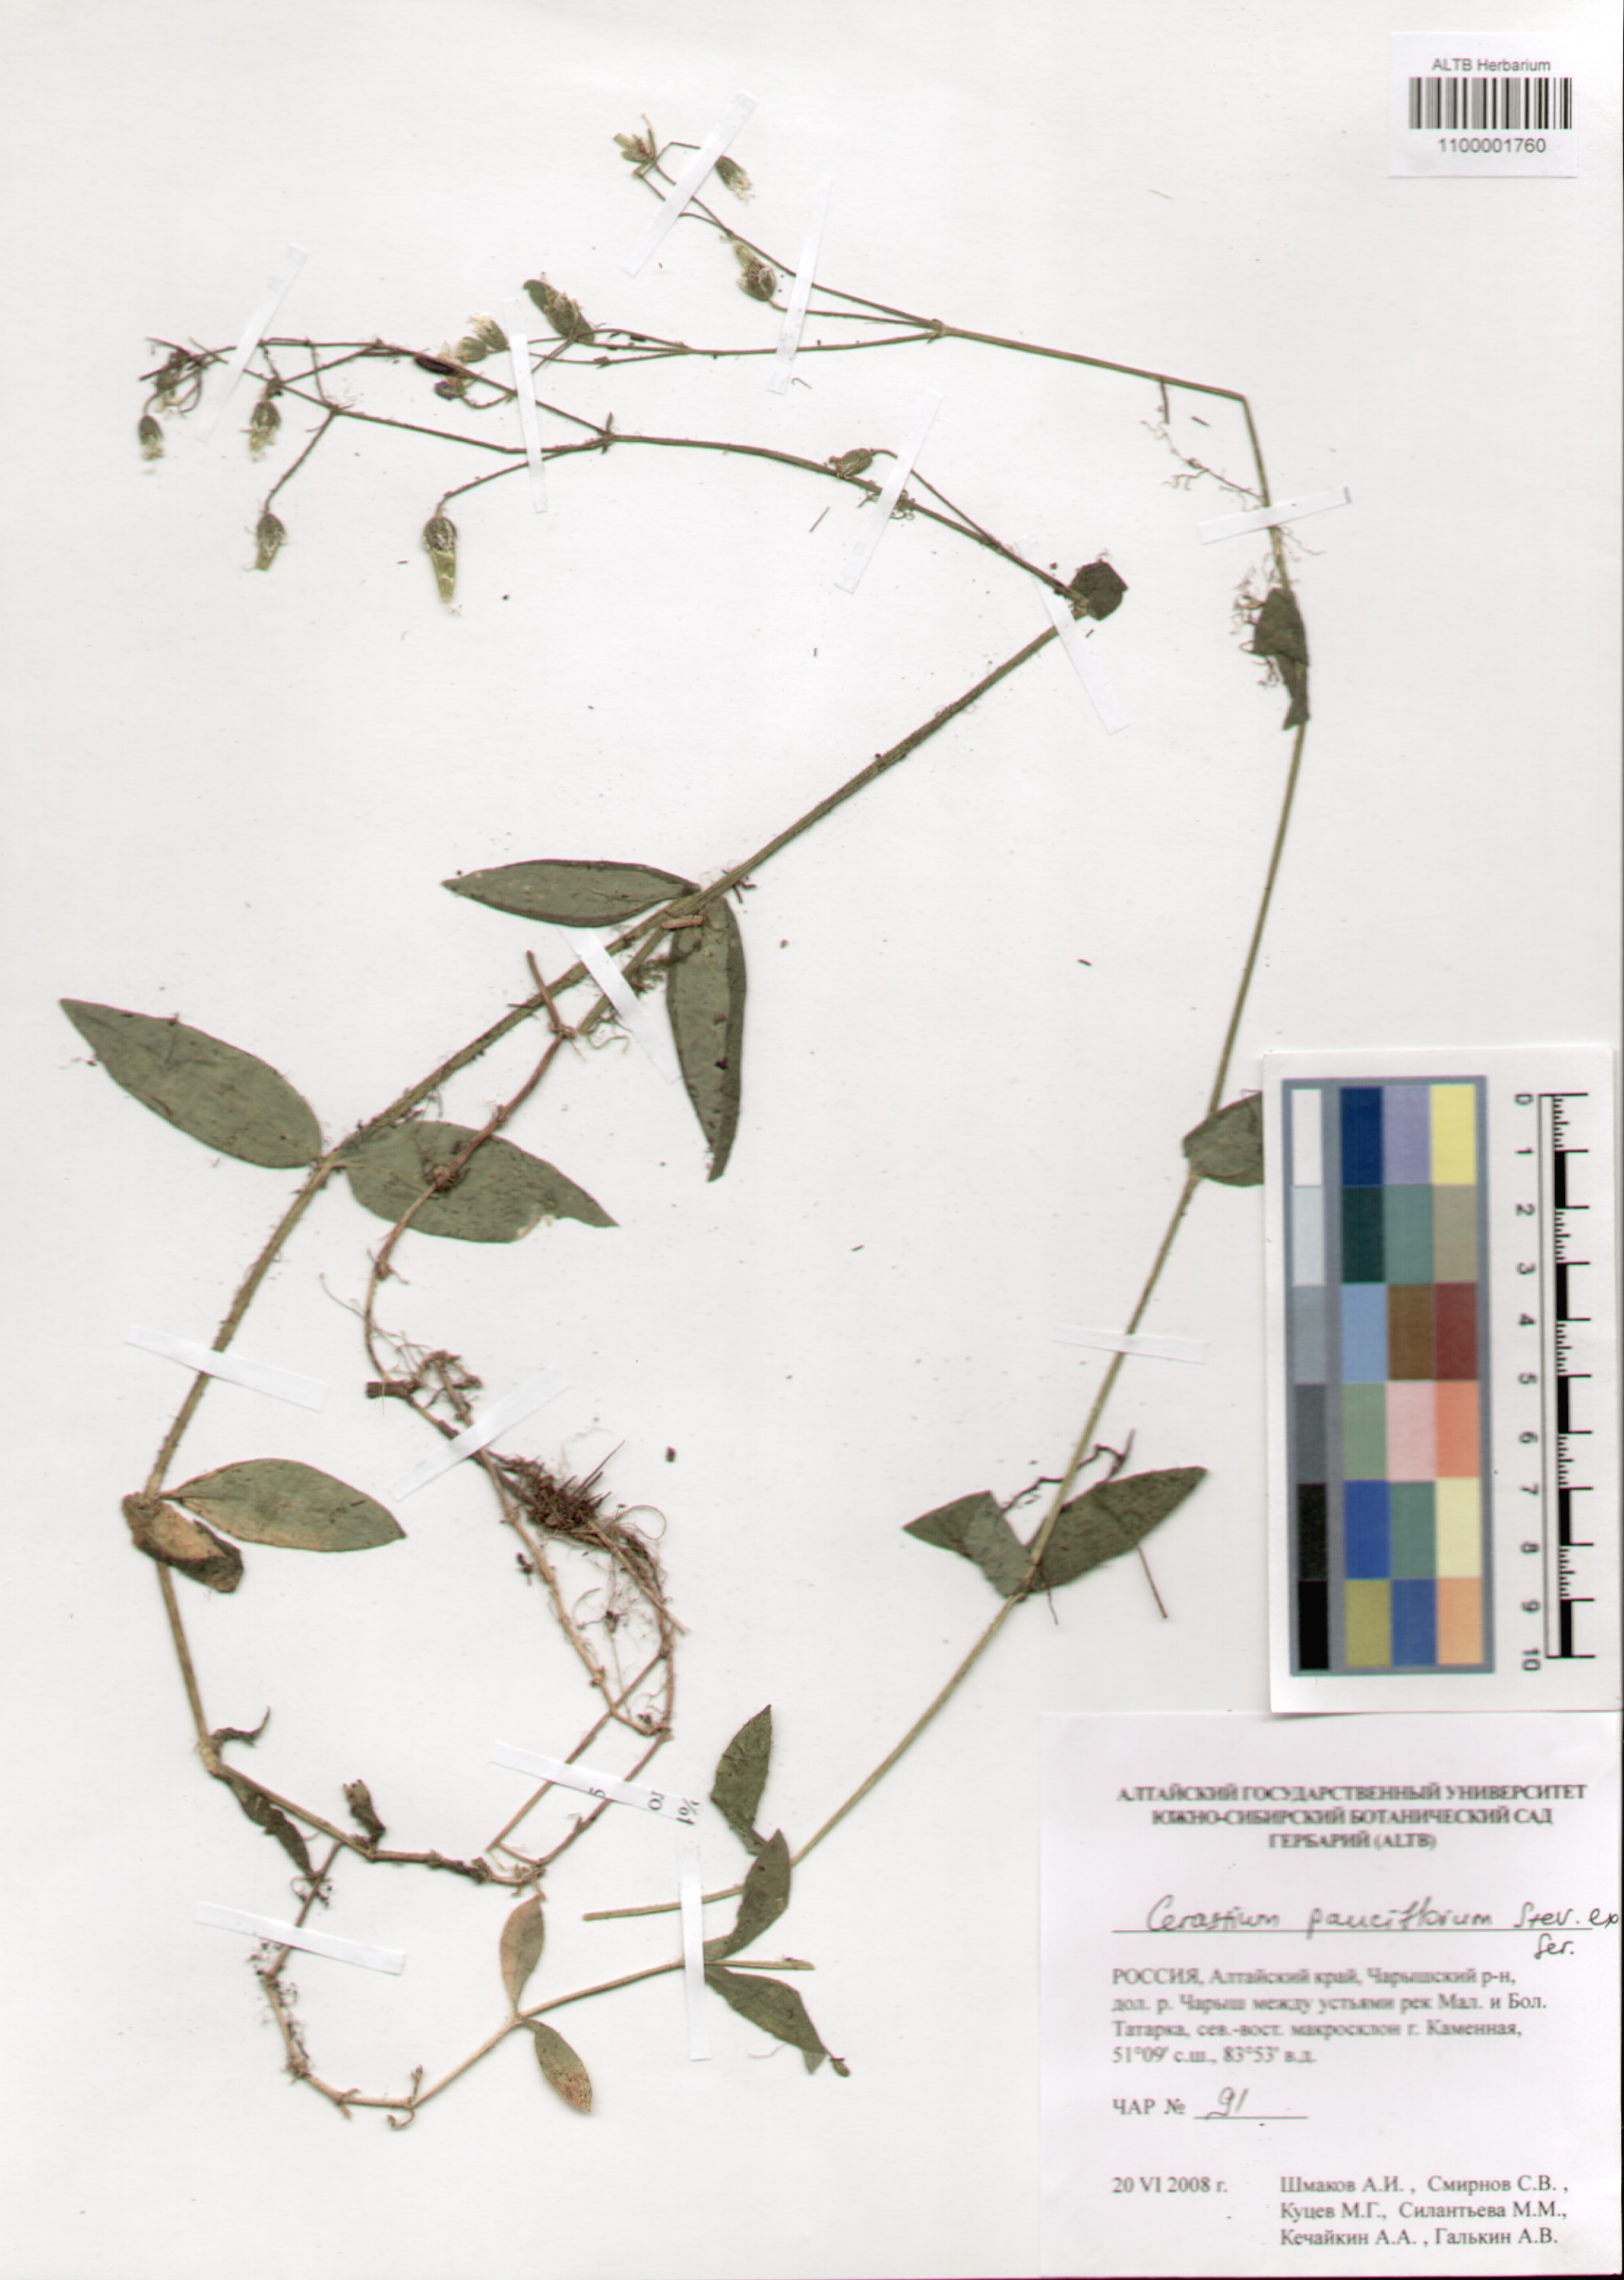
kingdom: Plantae
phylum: Tracheophyta
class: Magnoliopsida
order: Caryophyllales
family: Caryophyllaceae
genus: Cerastium
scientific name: Cerastium pauciflorum
